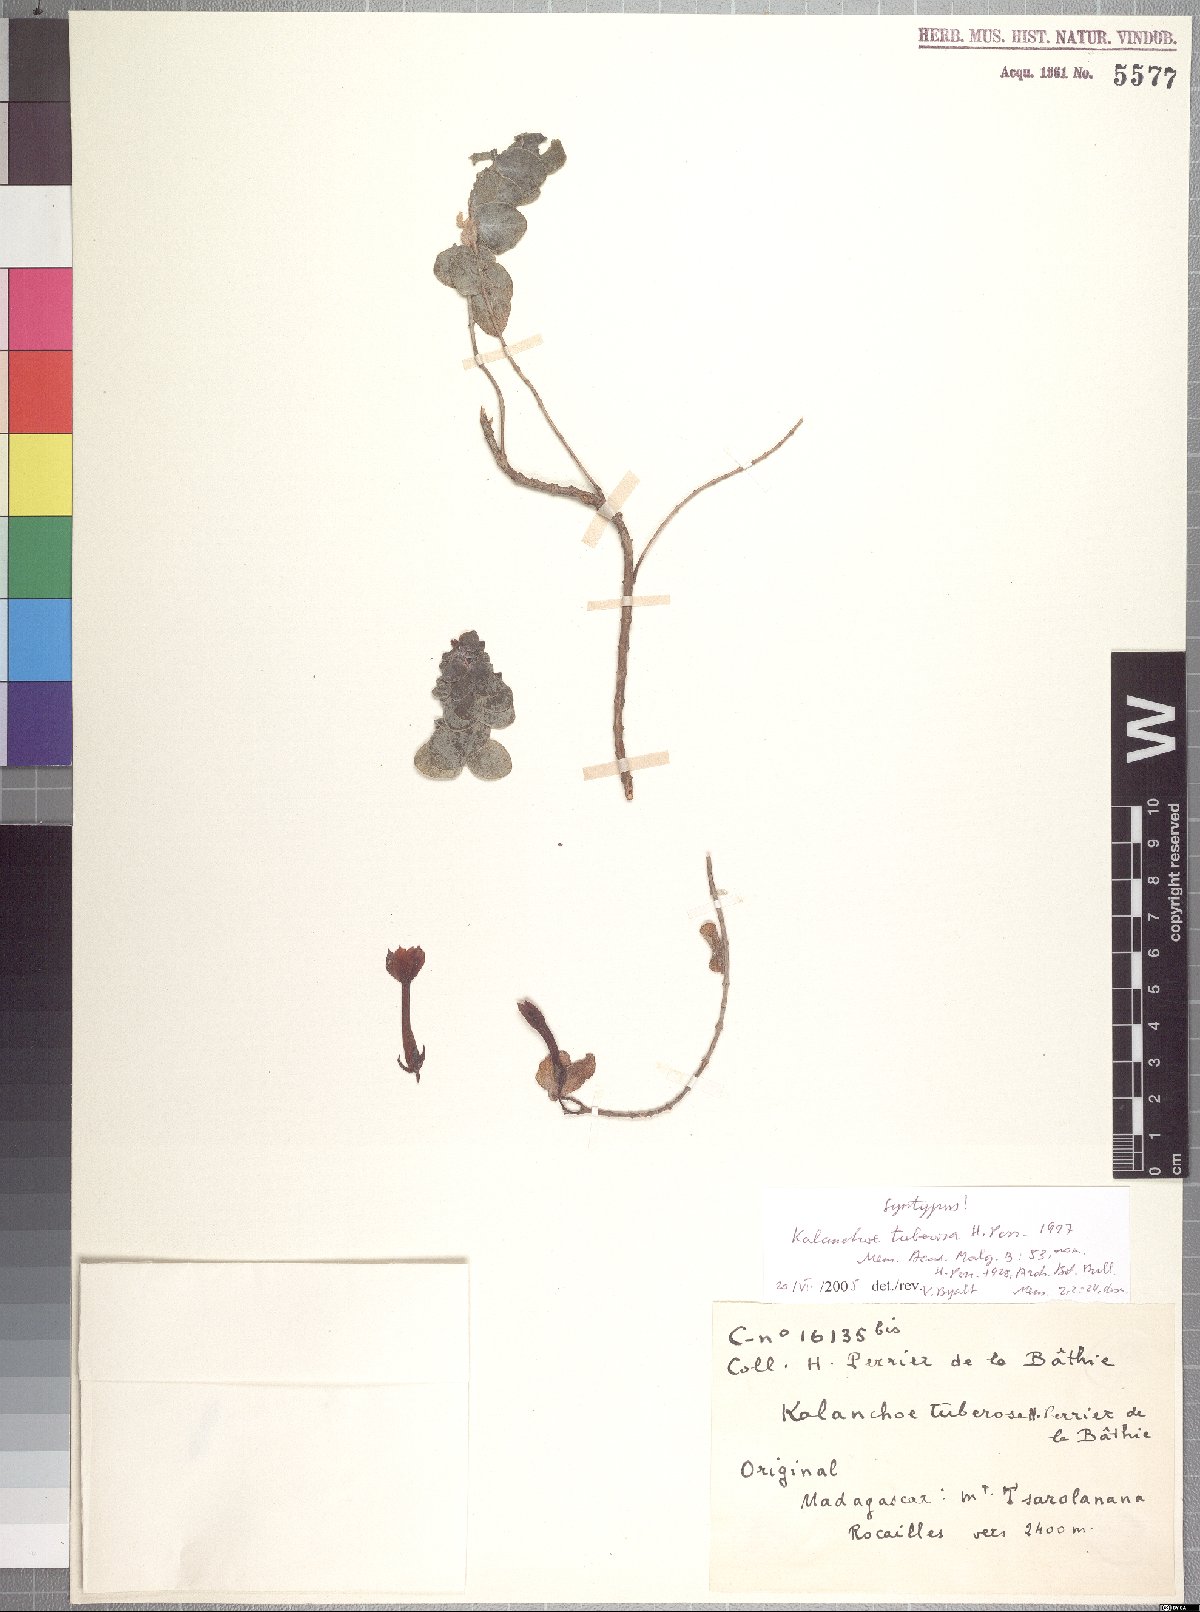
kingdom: Plantae
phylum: Tracheophyta
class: Magnoliopsida
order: Saxifragales
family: Crassulaceae
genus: Kalanchoe
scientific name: Kalanchoe delagoensis
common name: Chandelier plant
